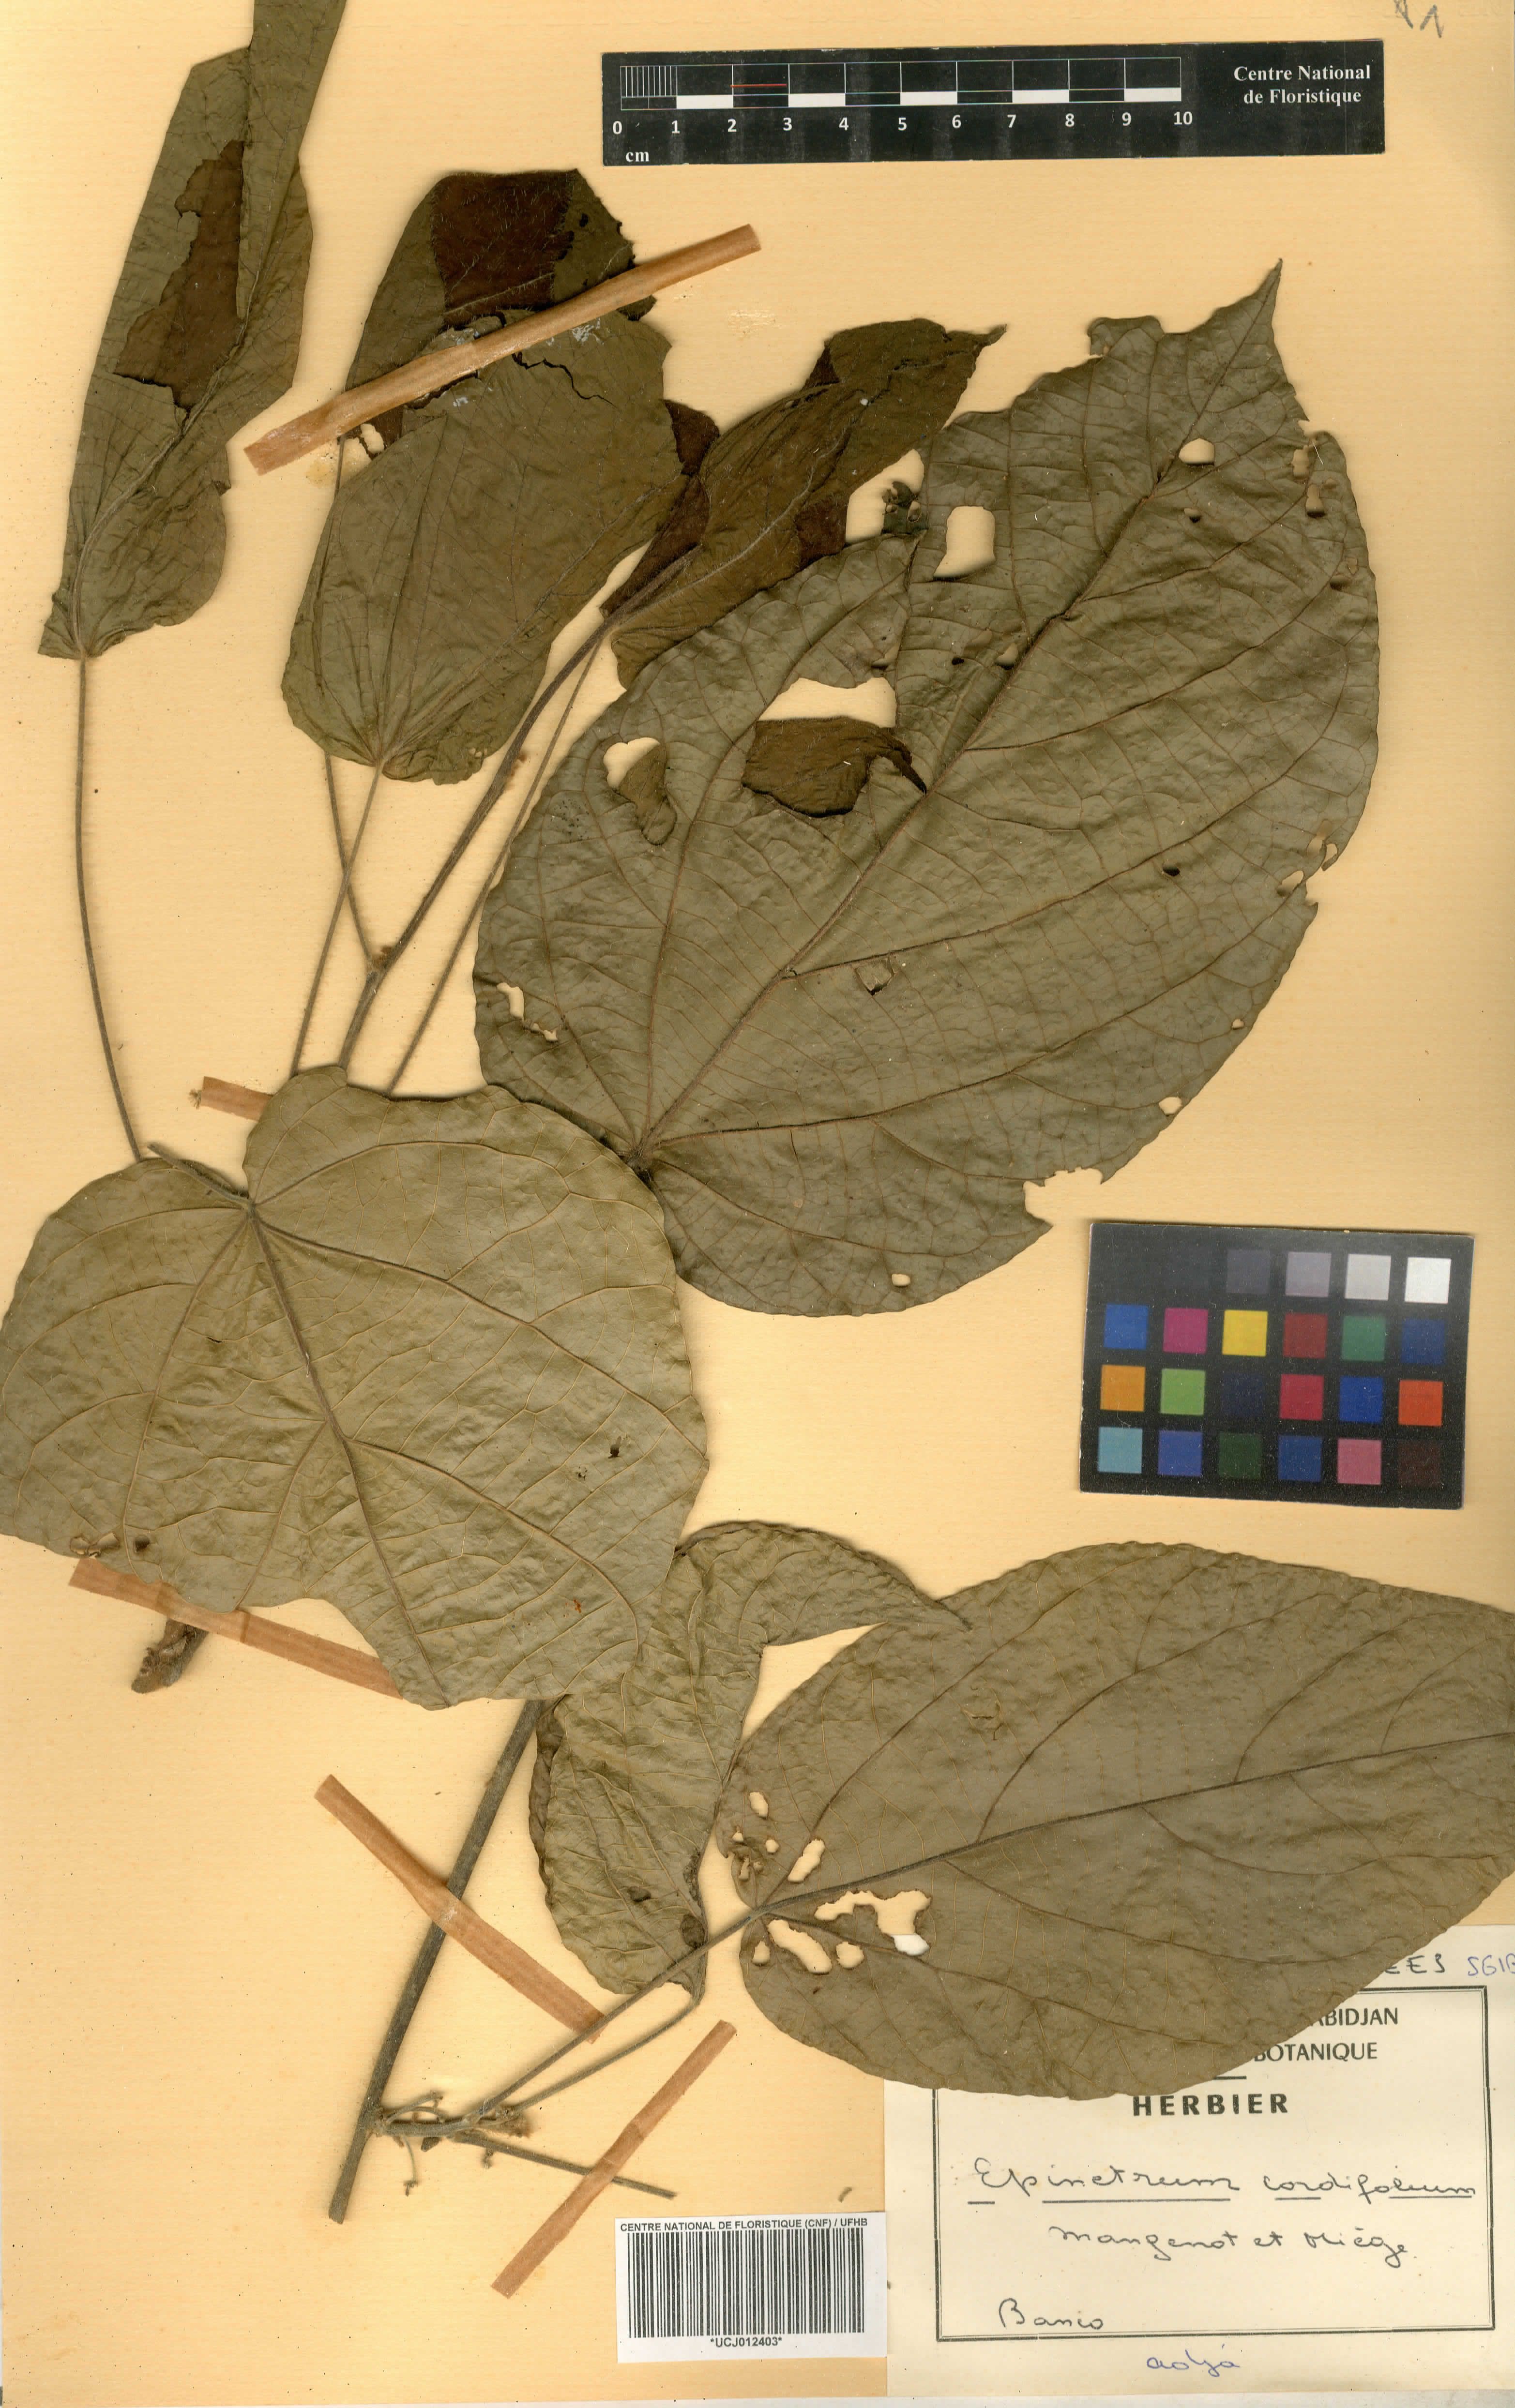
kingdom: Plantae
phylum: Tracheophyta
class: Magnoliopsida
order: Ranunculales
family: Menispermaceae
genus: Albertisia
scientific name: Albertisia cordifolia
